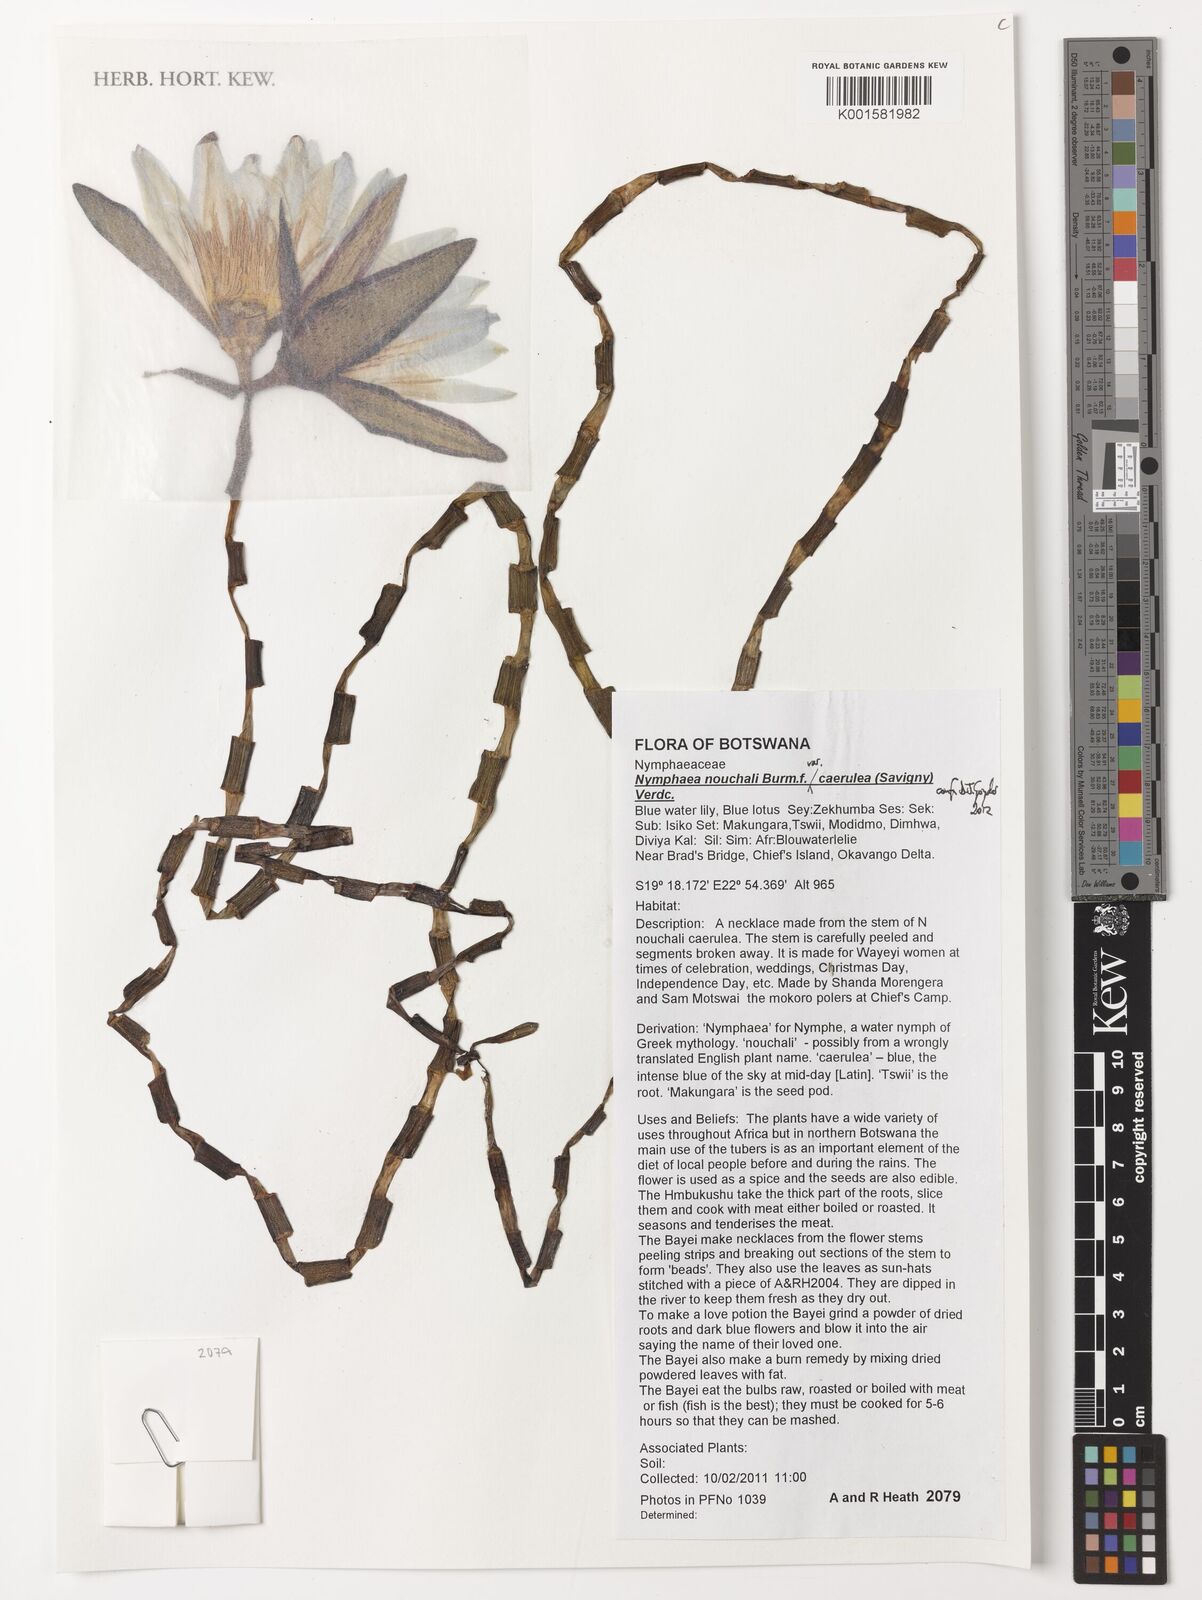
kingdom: Plantae
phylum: Tracheophyta
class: Magnoliopsida
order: Nymphaeales
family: Nymphaeaceae
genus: Nymphaea
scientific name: Nymphaea nouchali
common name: Blue lotus
